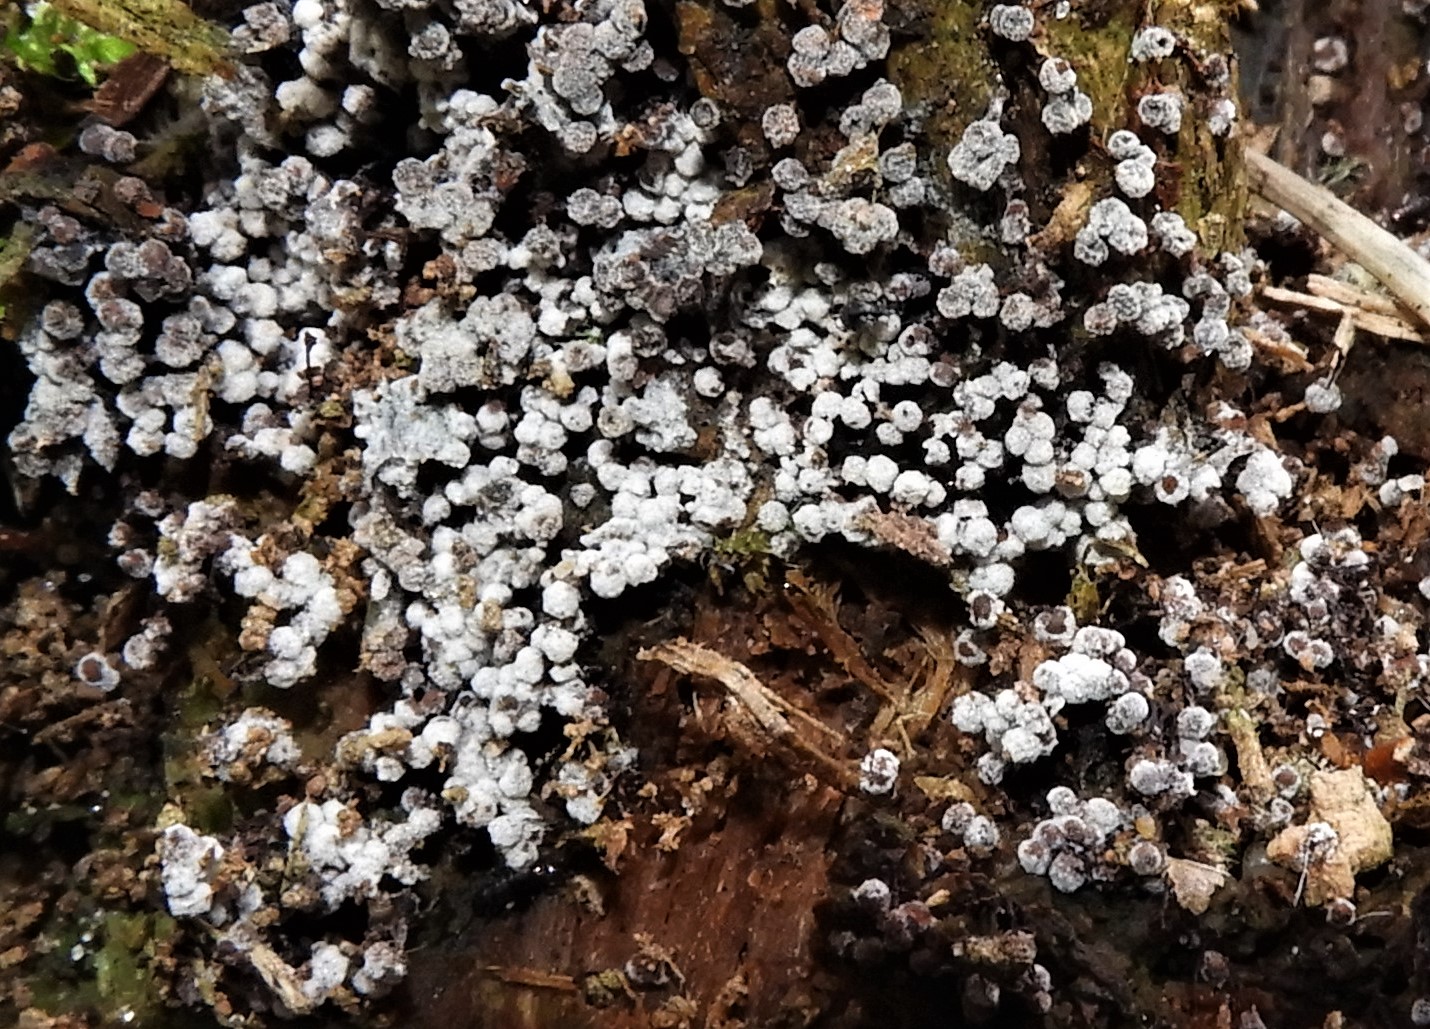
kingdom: Protozoa
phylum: Mycetozoa
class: Myxomycetes
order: Physarales
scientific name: Physarales
